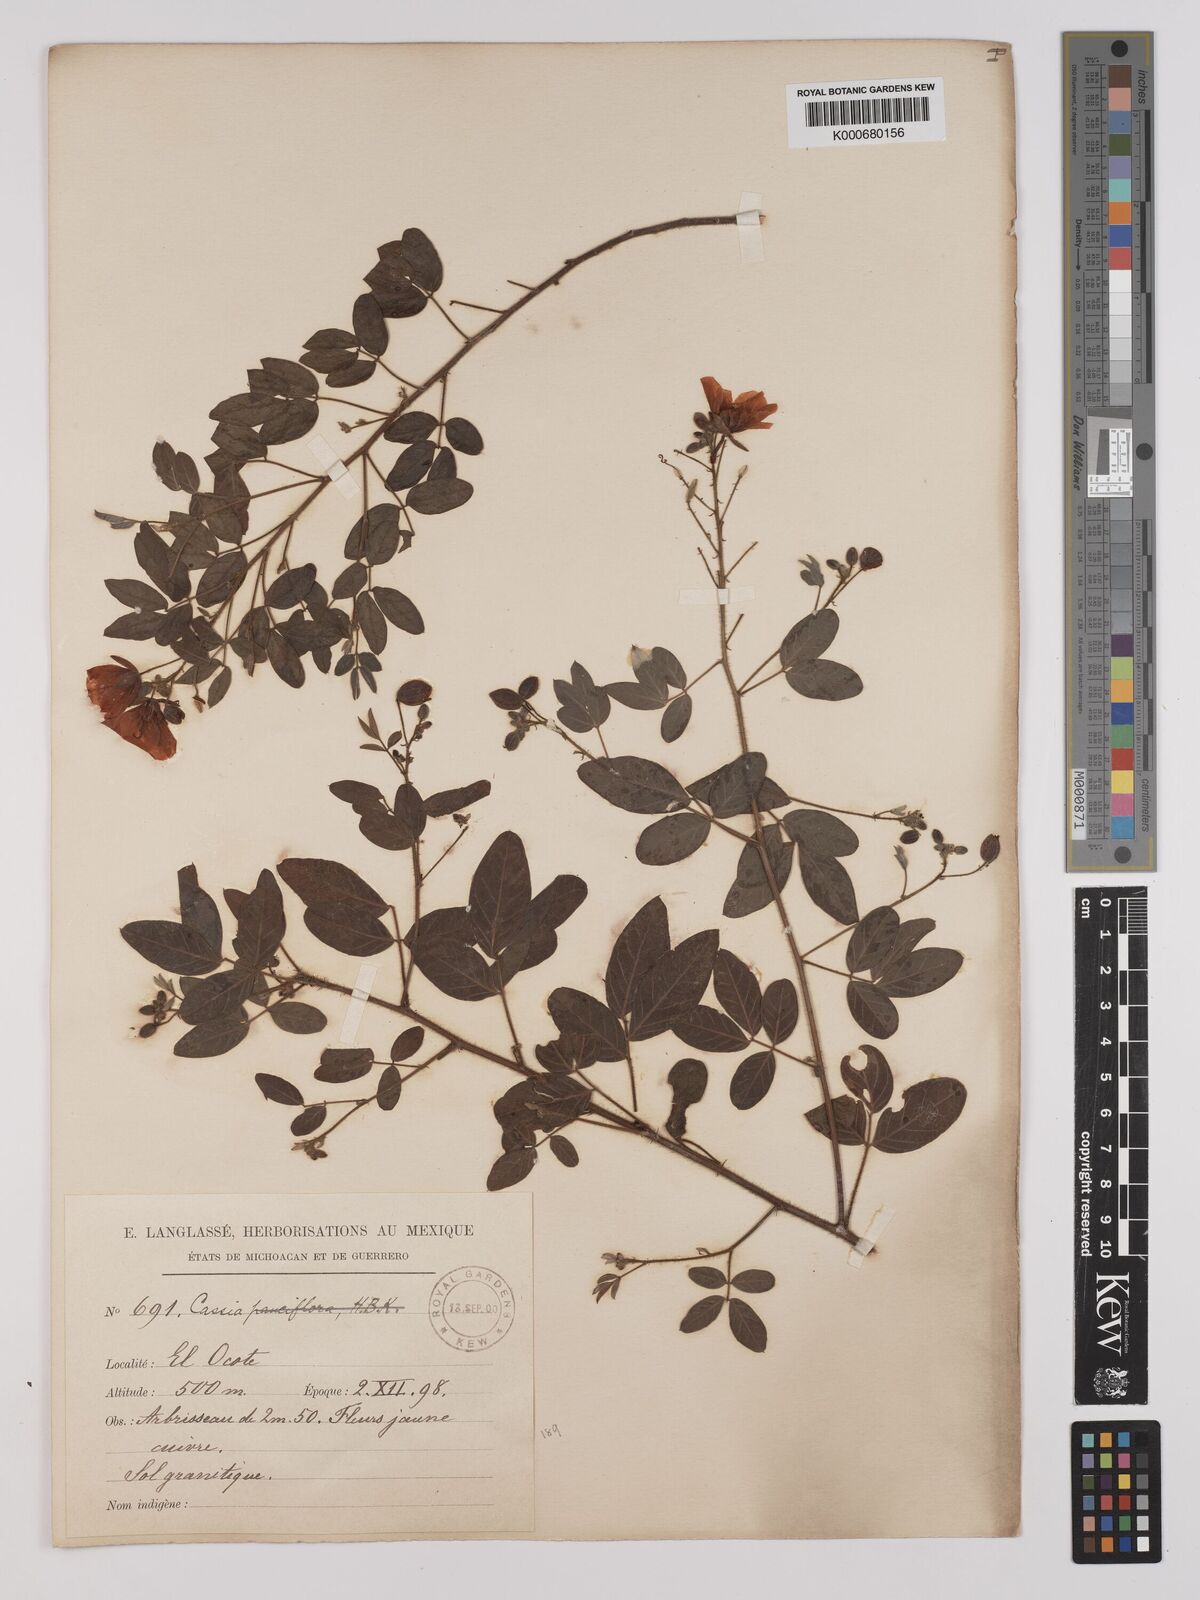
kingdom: Plantae
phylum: Tracheophyta
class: Magnoliopsida
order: Fabales
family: Fabaceae
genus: Chamaecrista
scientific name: Chamaecrista hispidula
